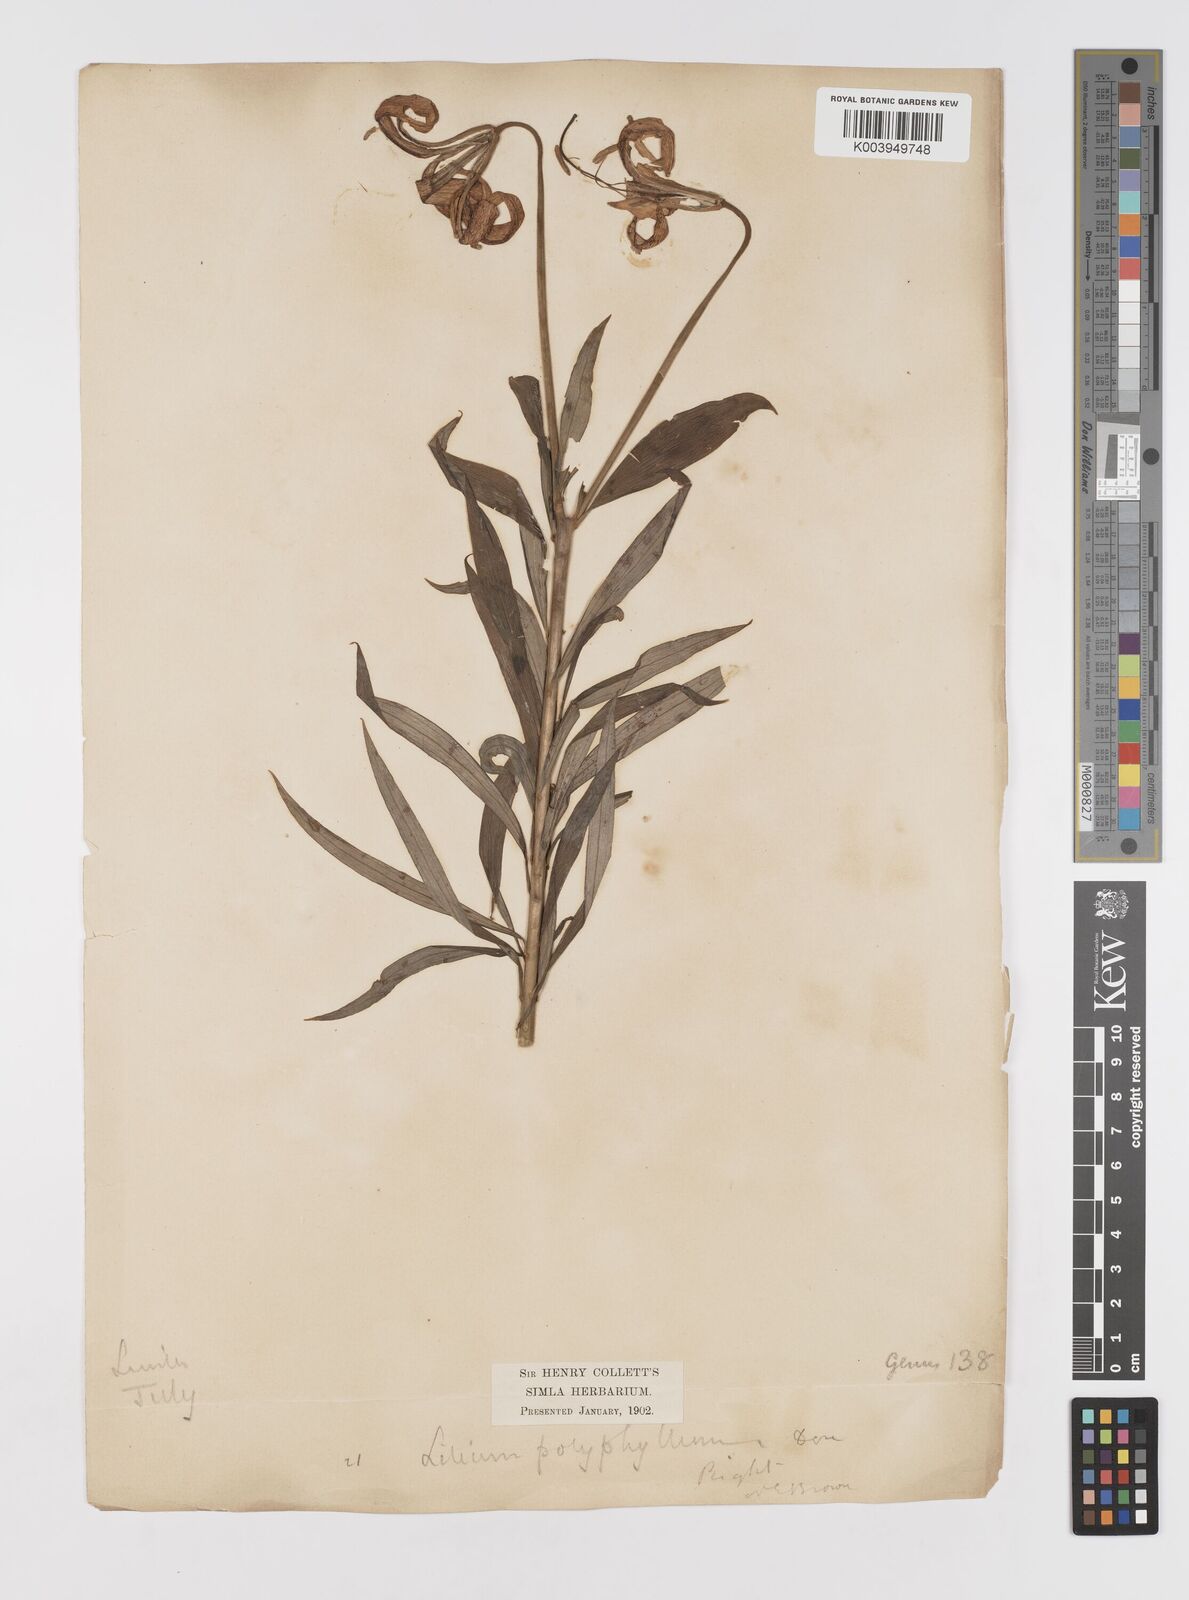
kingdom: Plantae
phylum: Tracheophyta
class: Liliopsida
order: Liliales
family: Liliaceae
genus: Lilium
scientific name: Lilium polyphyllum
